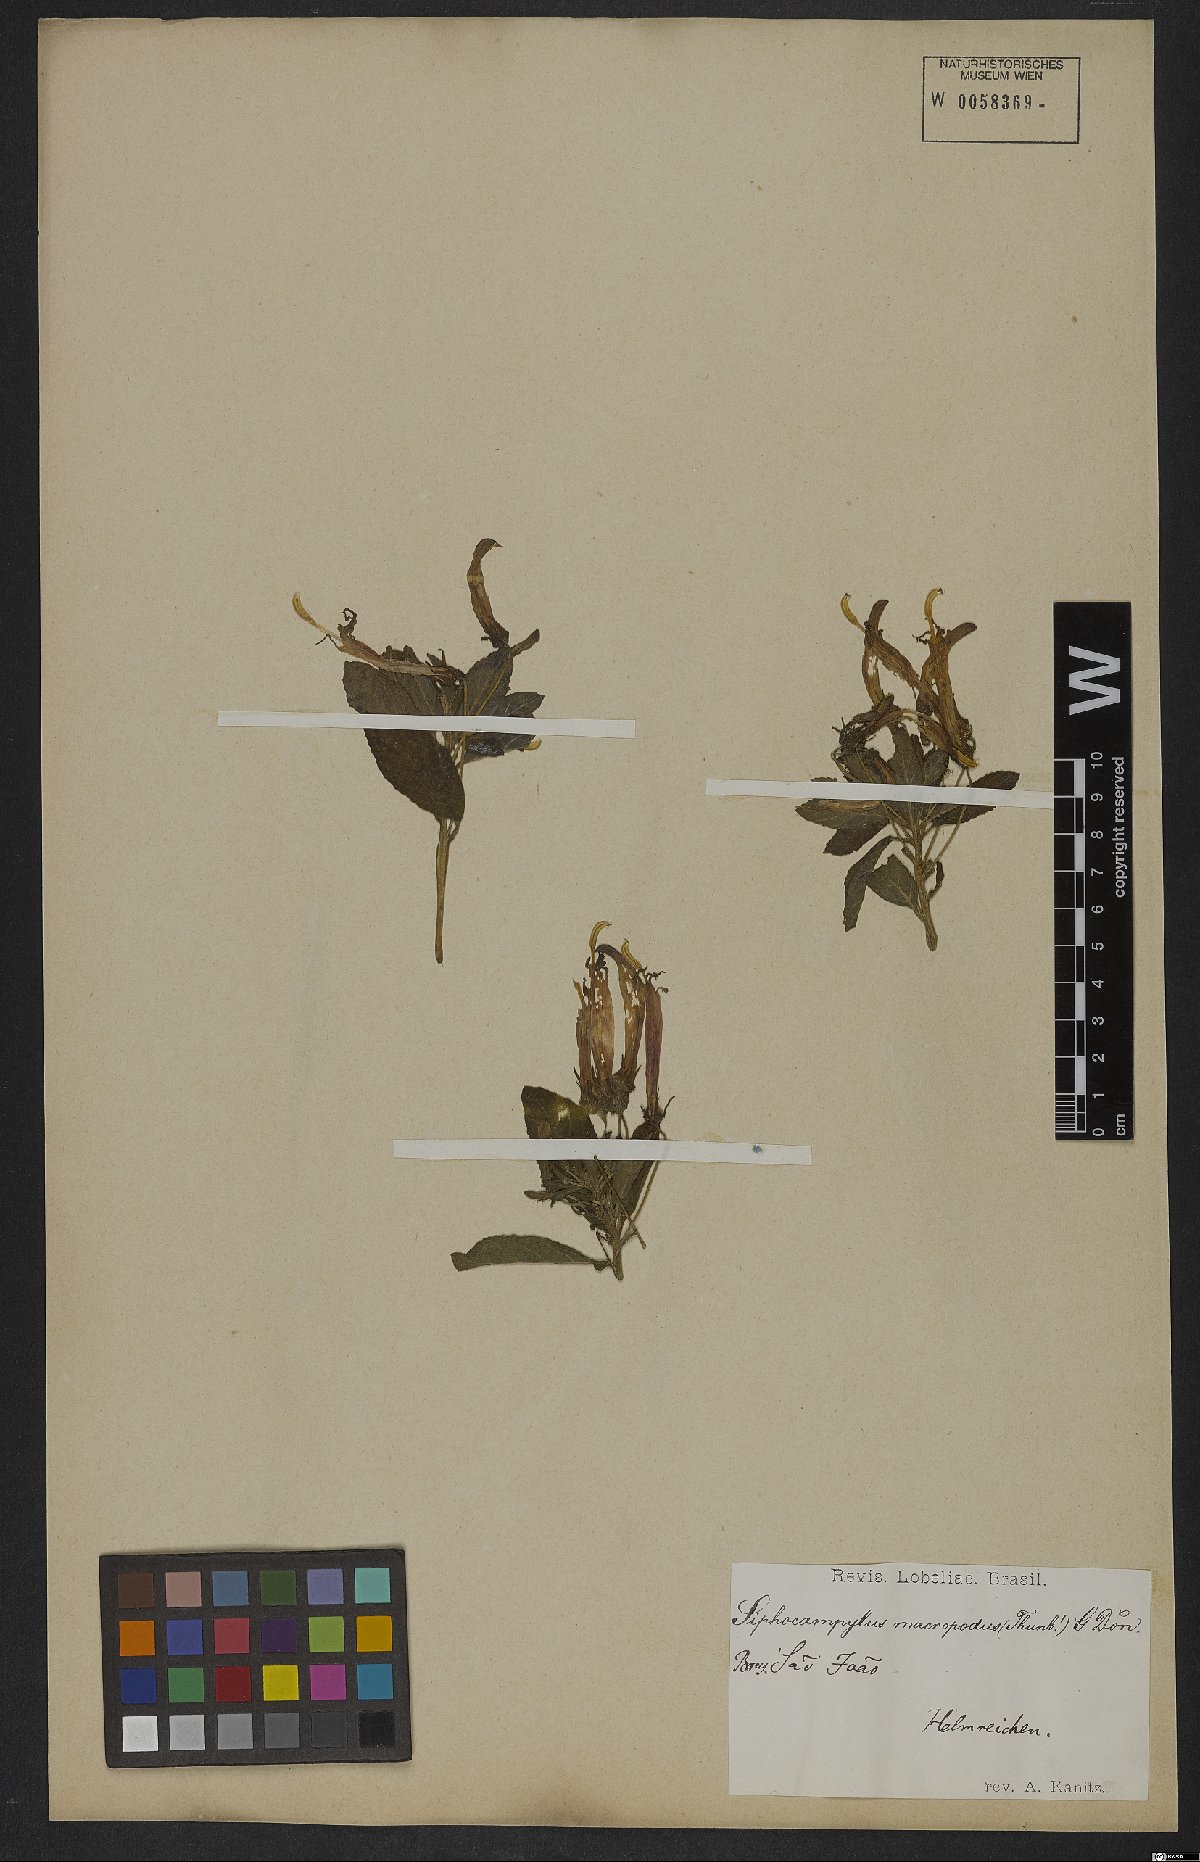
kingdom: Plantae
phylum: Tracheophyta
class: Magnoliopsida
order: Asterales
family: Campanulaceae
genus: Siphocampylus
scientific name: Siphocampylus macropodus
